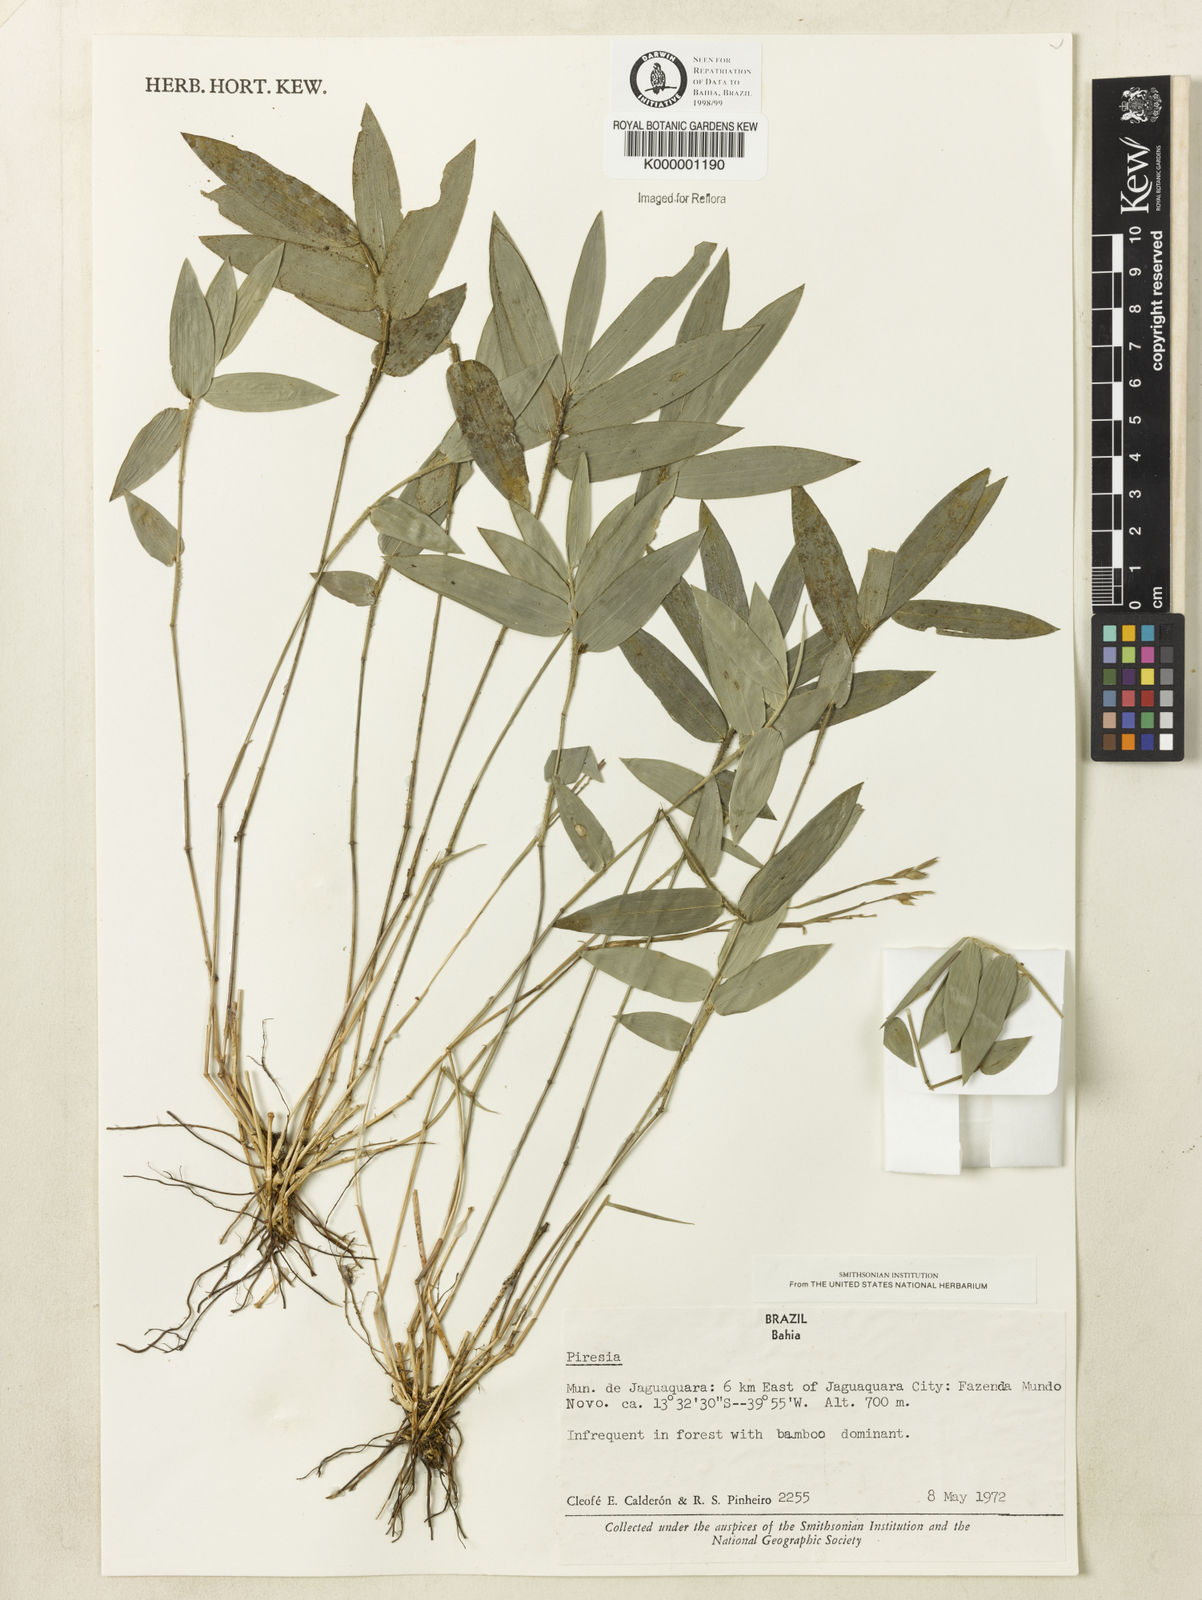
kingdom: Plantae
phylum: Tracheophyta
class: Liliopsida
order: Poales
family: Poaceae
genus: Piresia
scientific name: Piresia
